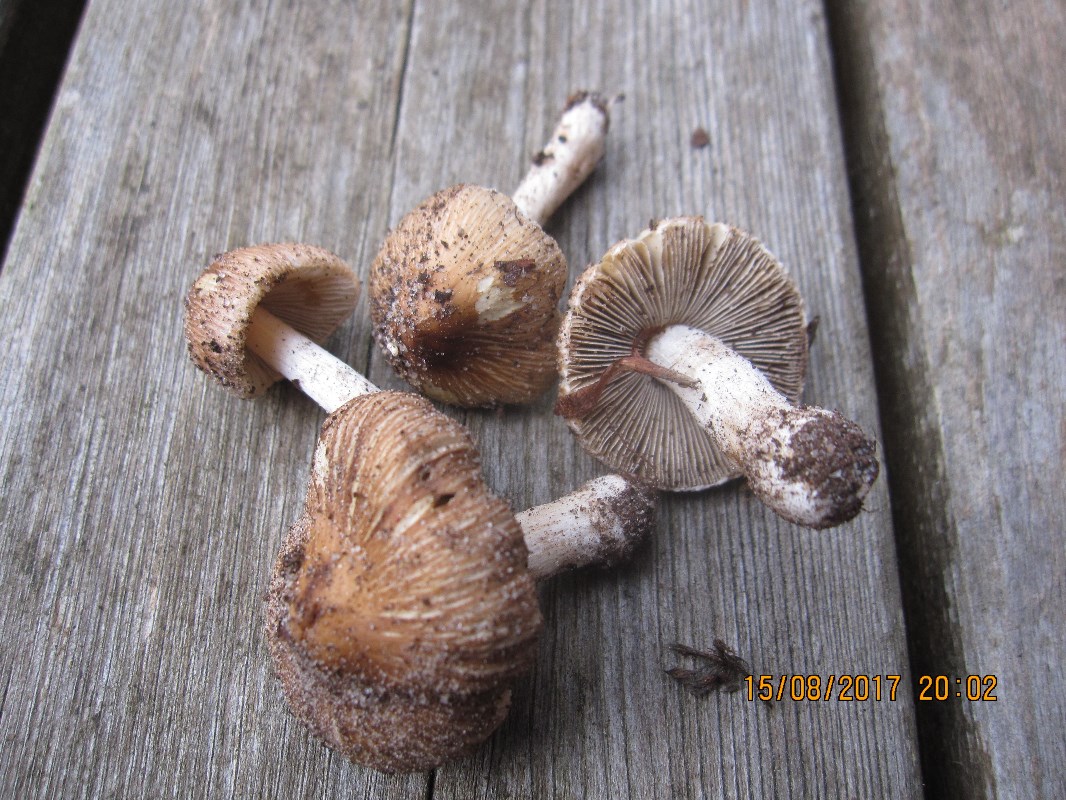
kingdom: Fungi
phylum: Basidiomycota
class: Agaricomycetes
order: Agaricales
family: Inocybaceae
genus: Pseudosperma
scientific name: Pseudosperma
